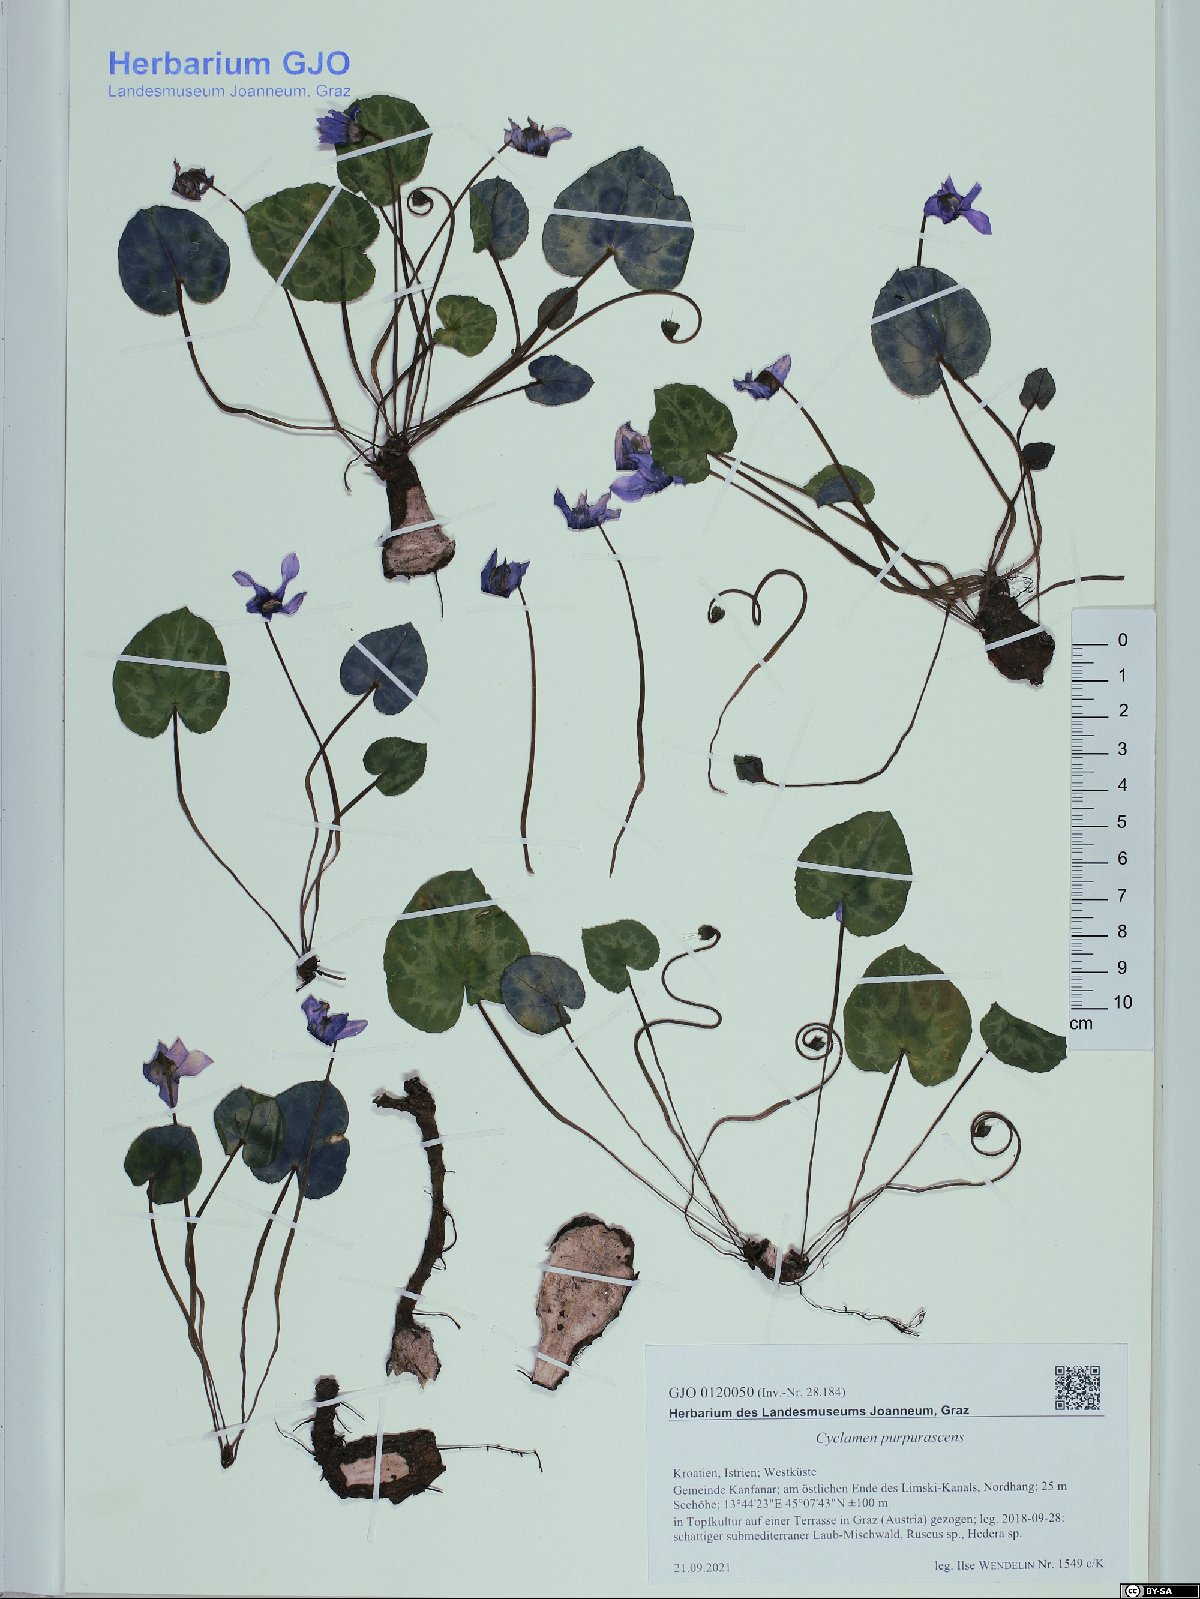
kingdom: Plantae
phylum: Tracheophyta
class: Magnoliopsida
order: Ericales
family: Primulaceae
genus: Cyclamen
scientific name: Cyclamen purpurascens
